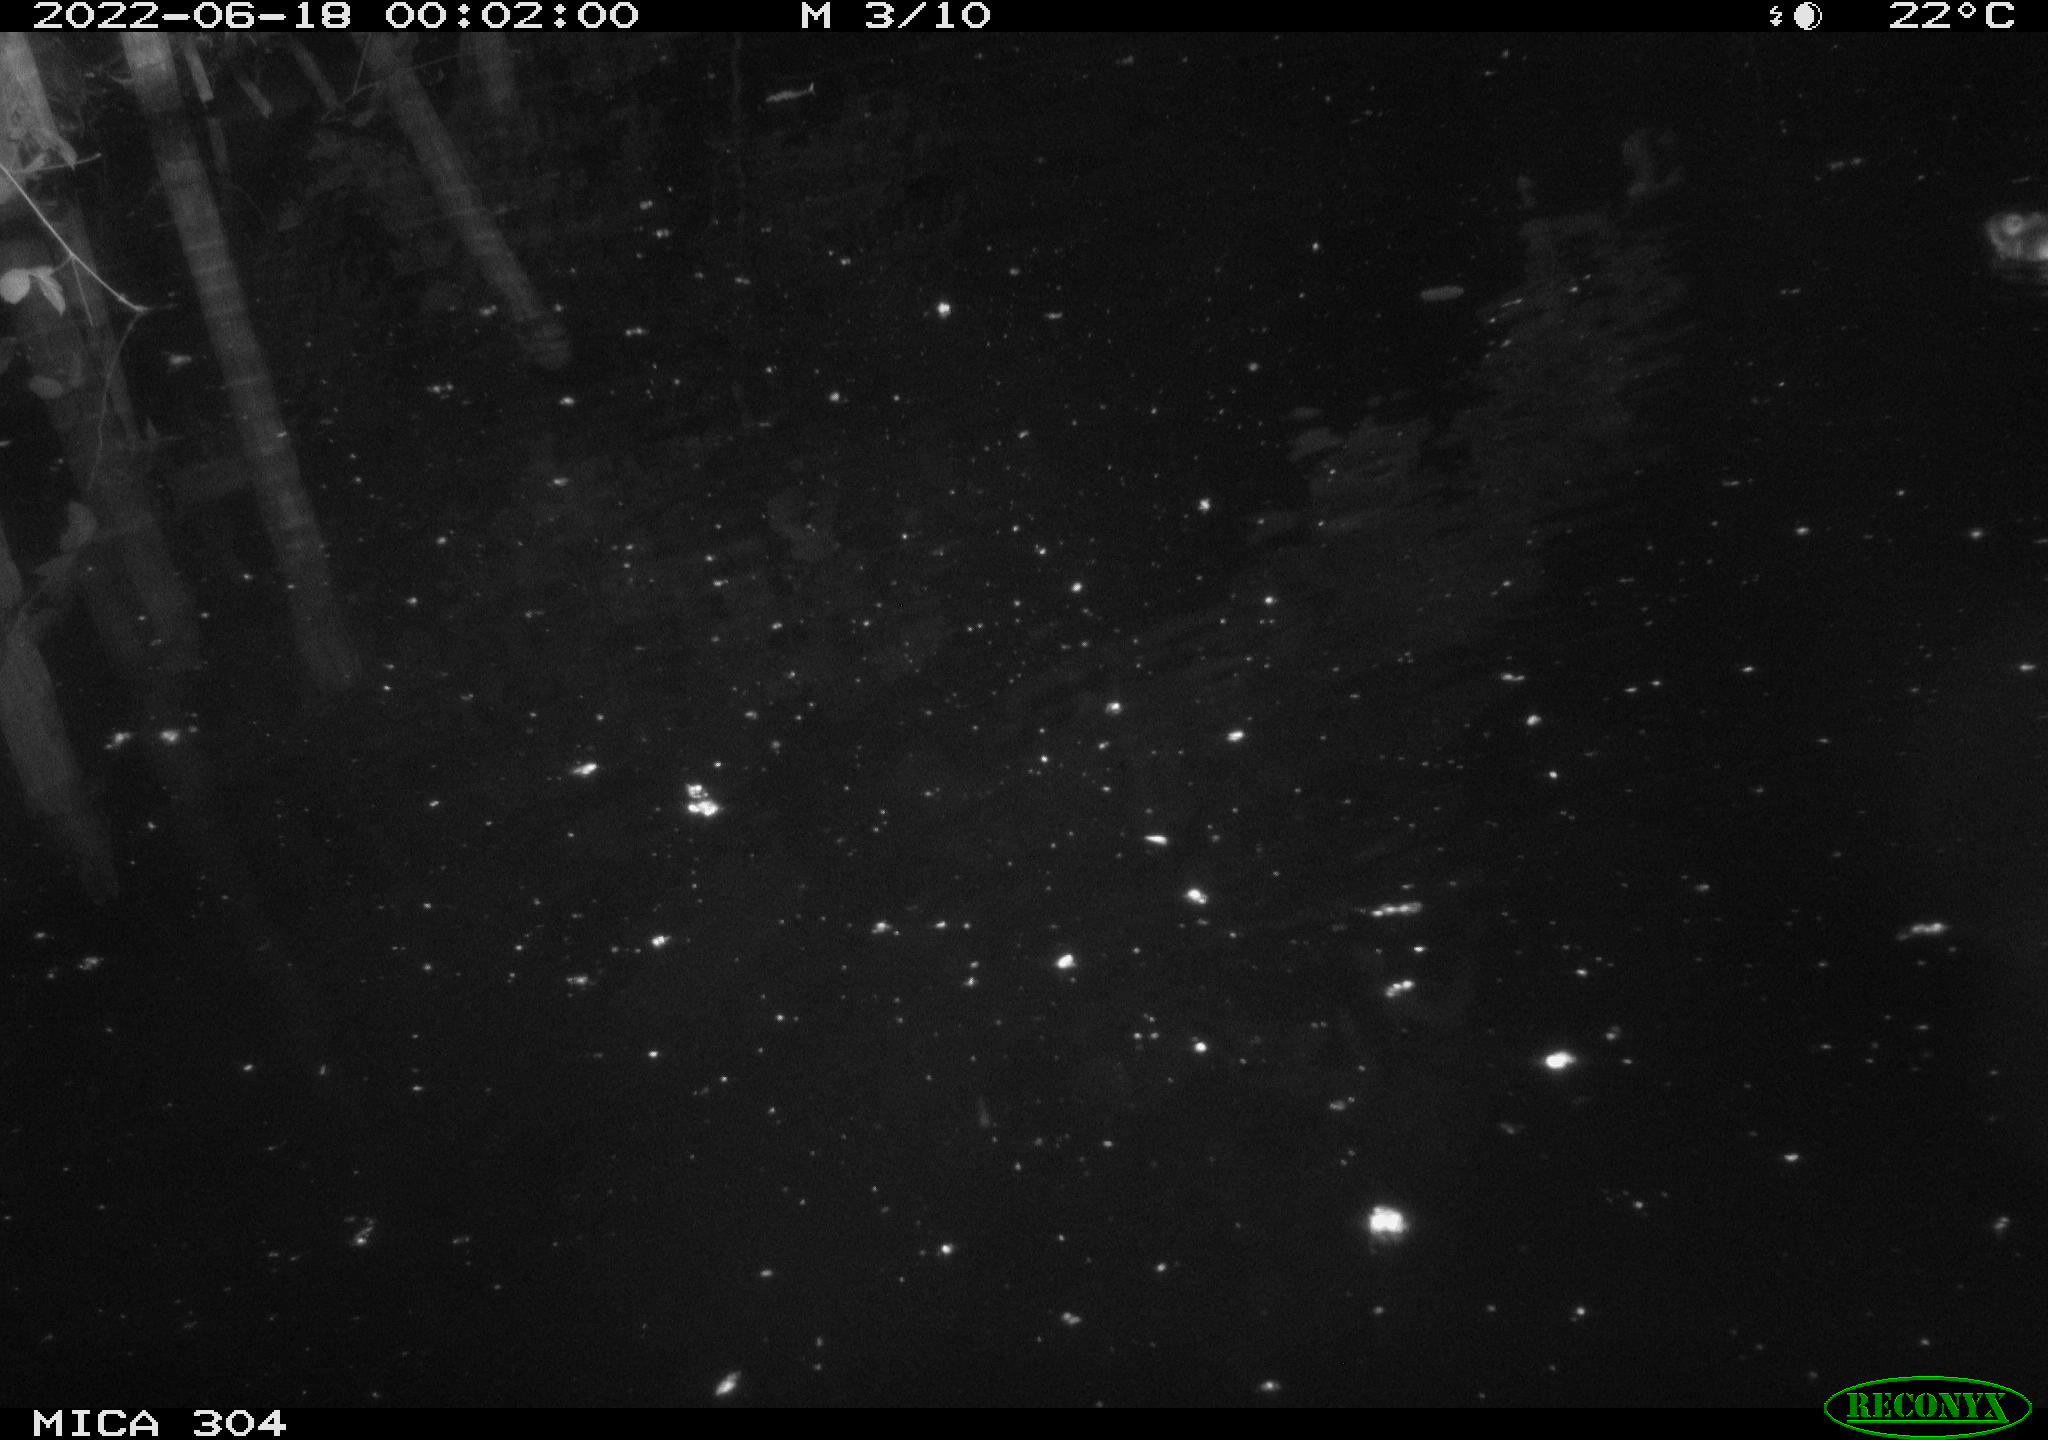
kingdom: Animalia
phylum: Chordata
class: Aves
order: Anseriformes
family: Anatidae
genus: Anas
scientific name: Anas platyrhynchos
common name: Mallard
